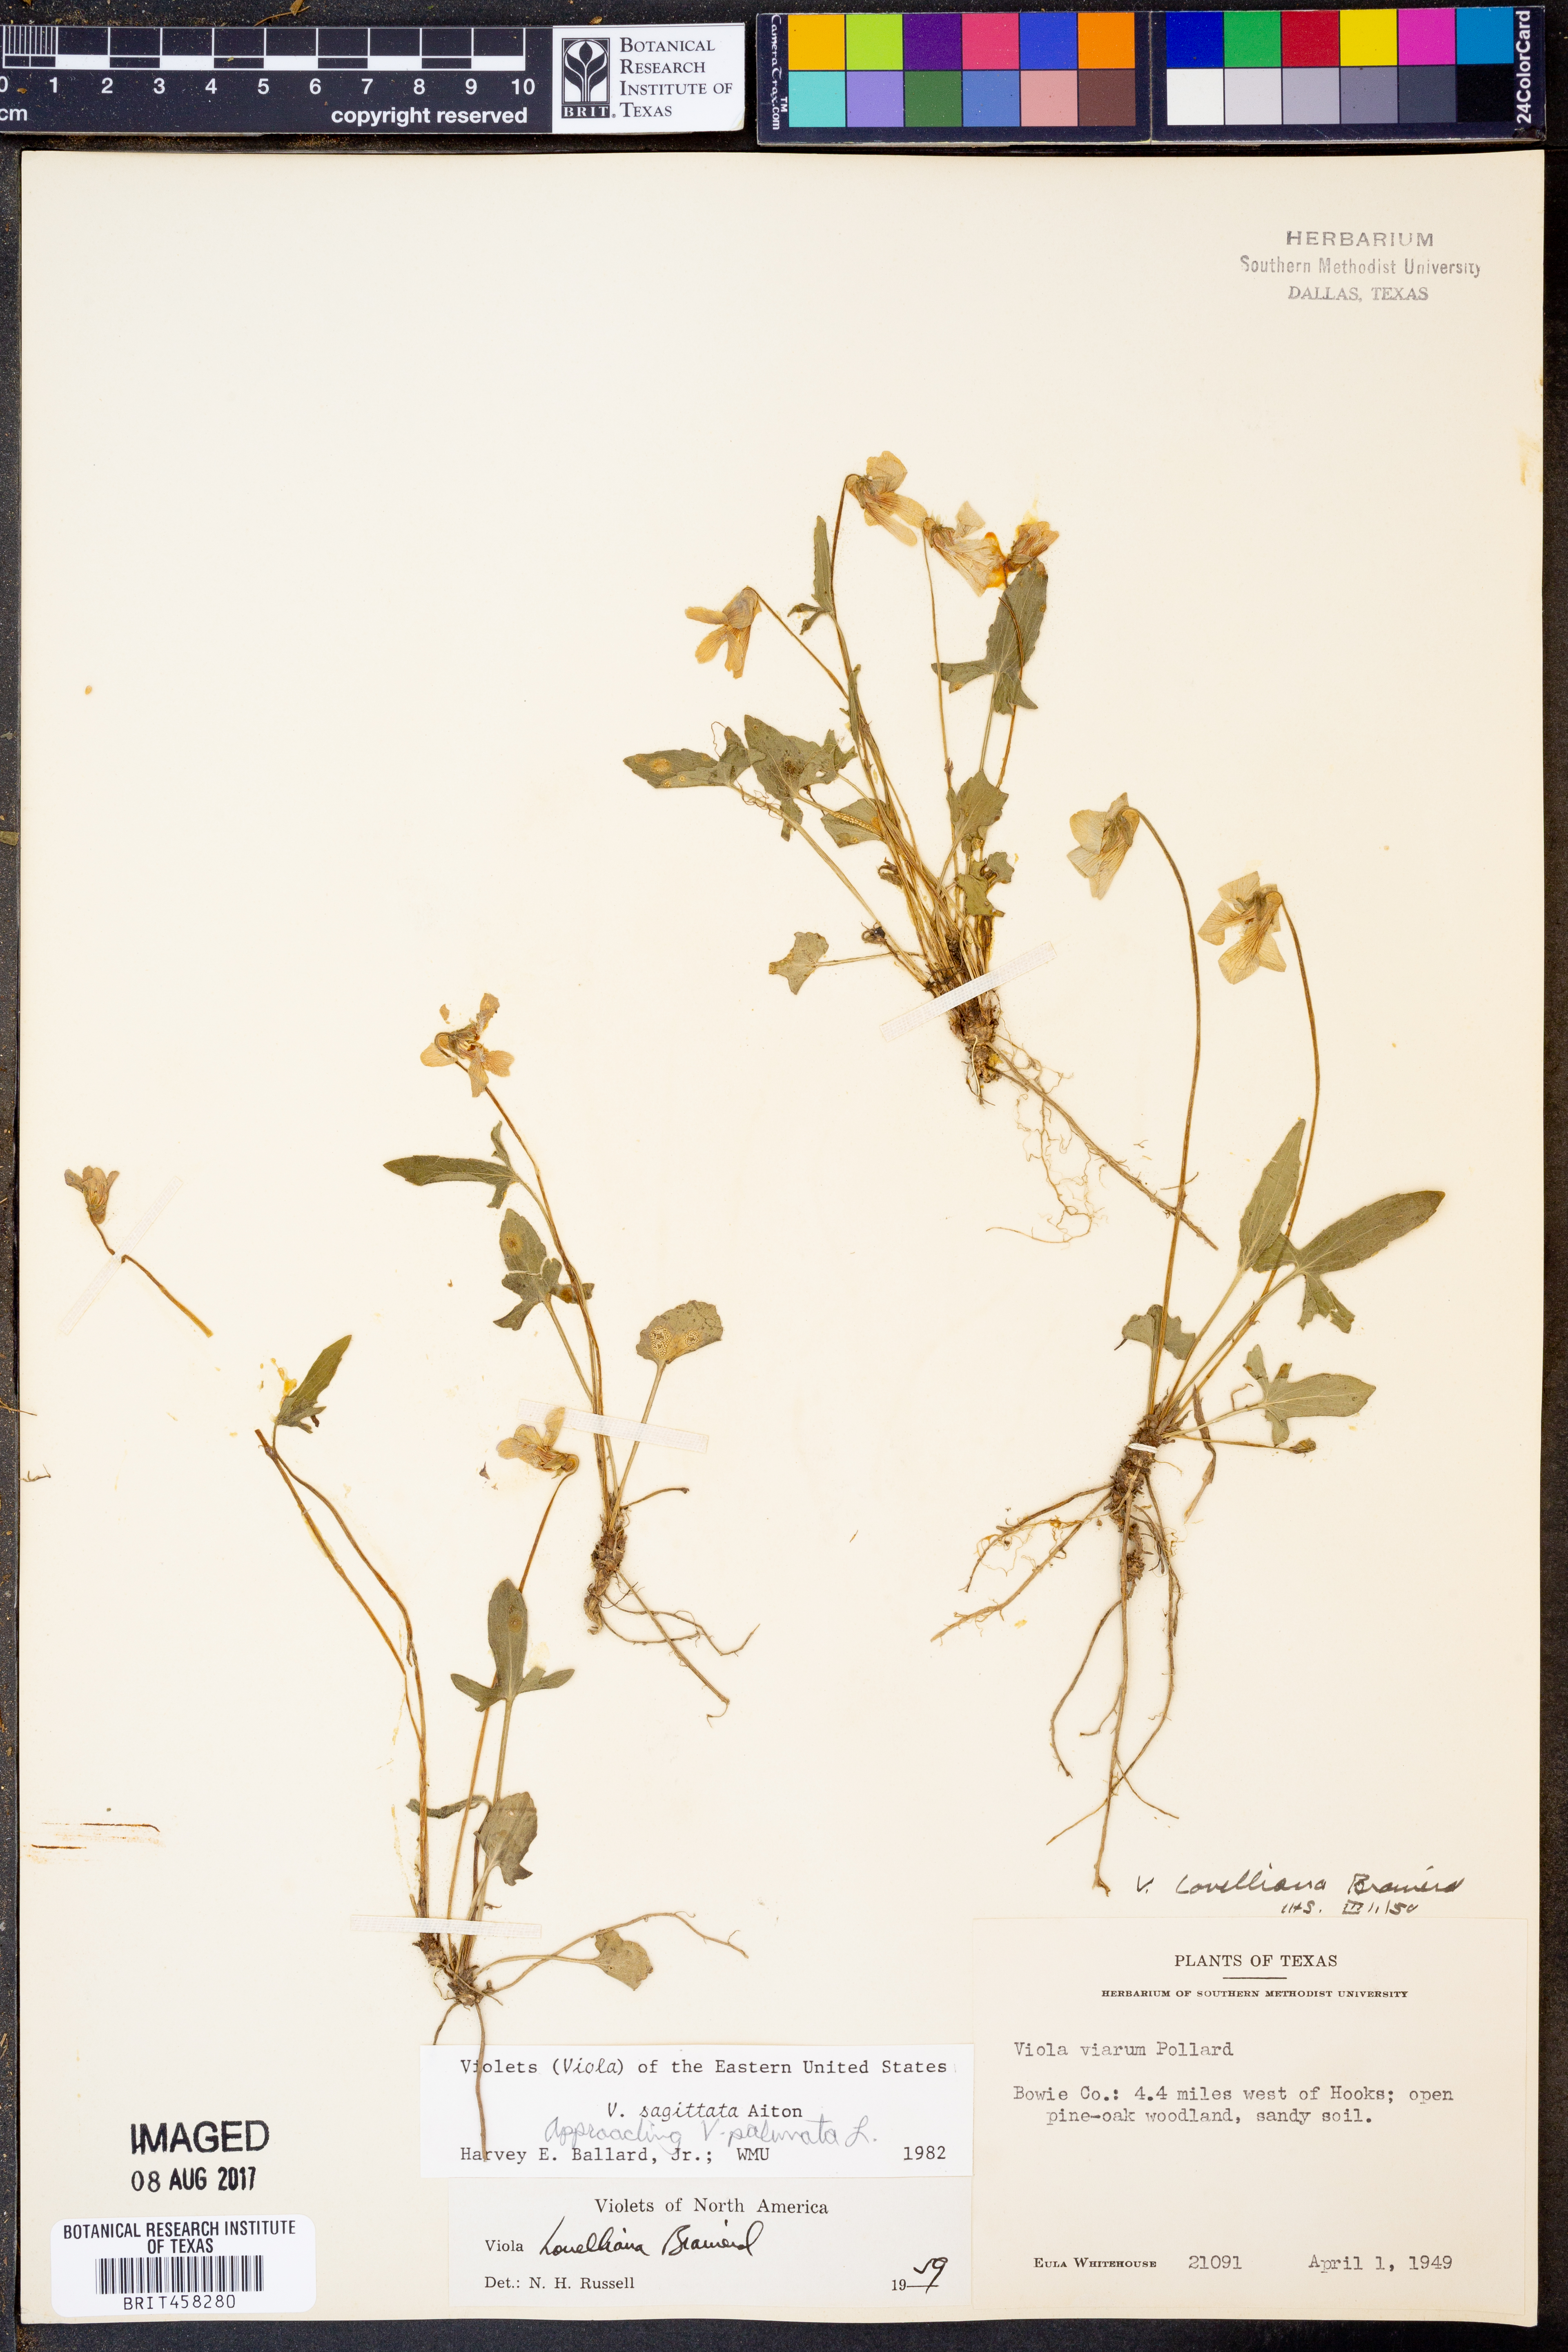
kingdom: Plantae
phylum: Tracheophyta
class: Magnoliopsida
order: Malpighiales
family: Violaceae
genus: Viola
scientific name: Viola sagittata
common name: Arrowhead violet
